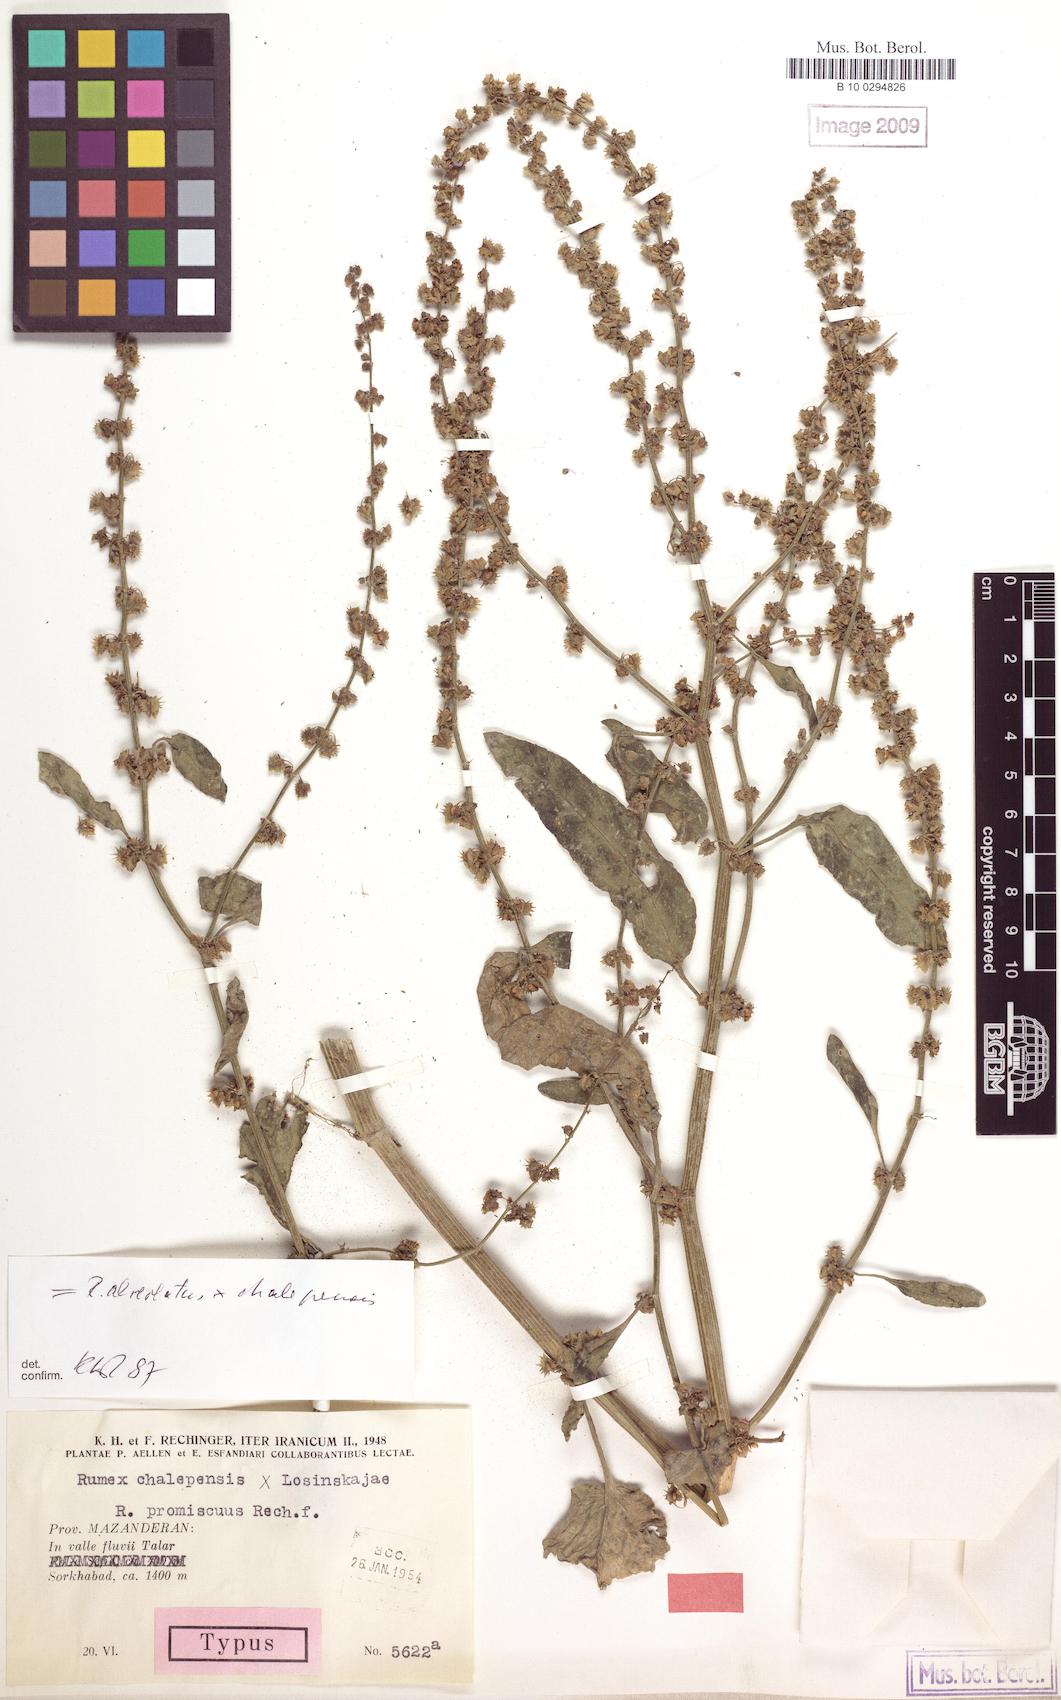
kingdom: Plantae
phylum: Tracheophyta
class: Magnoliopsida
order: Caryophyllales
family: Polygonaceae
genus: Rumex
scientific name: Rumex chalepensis
